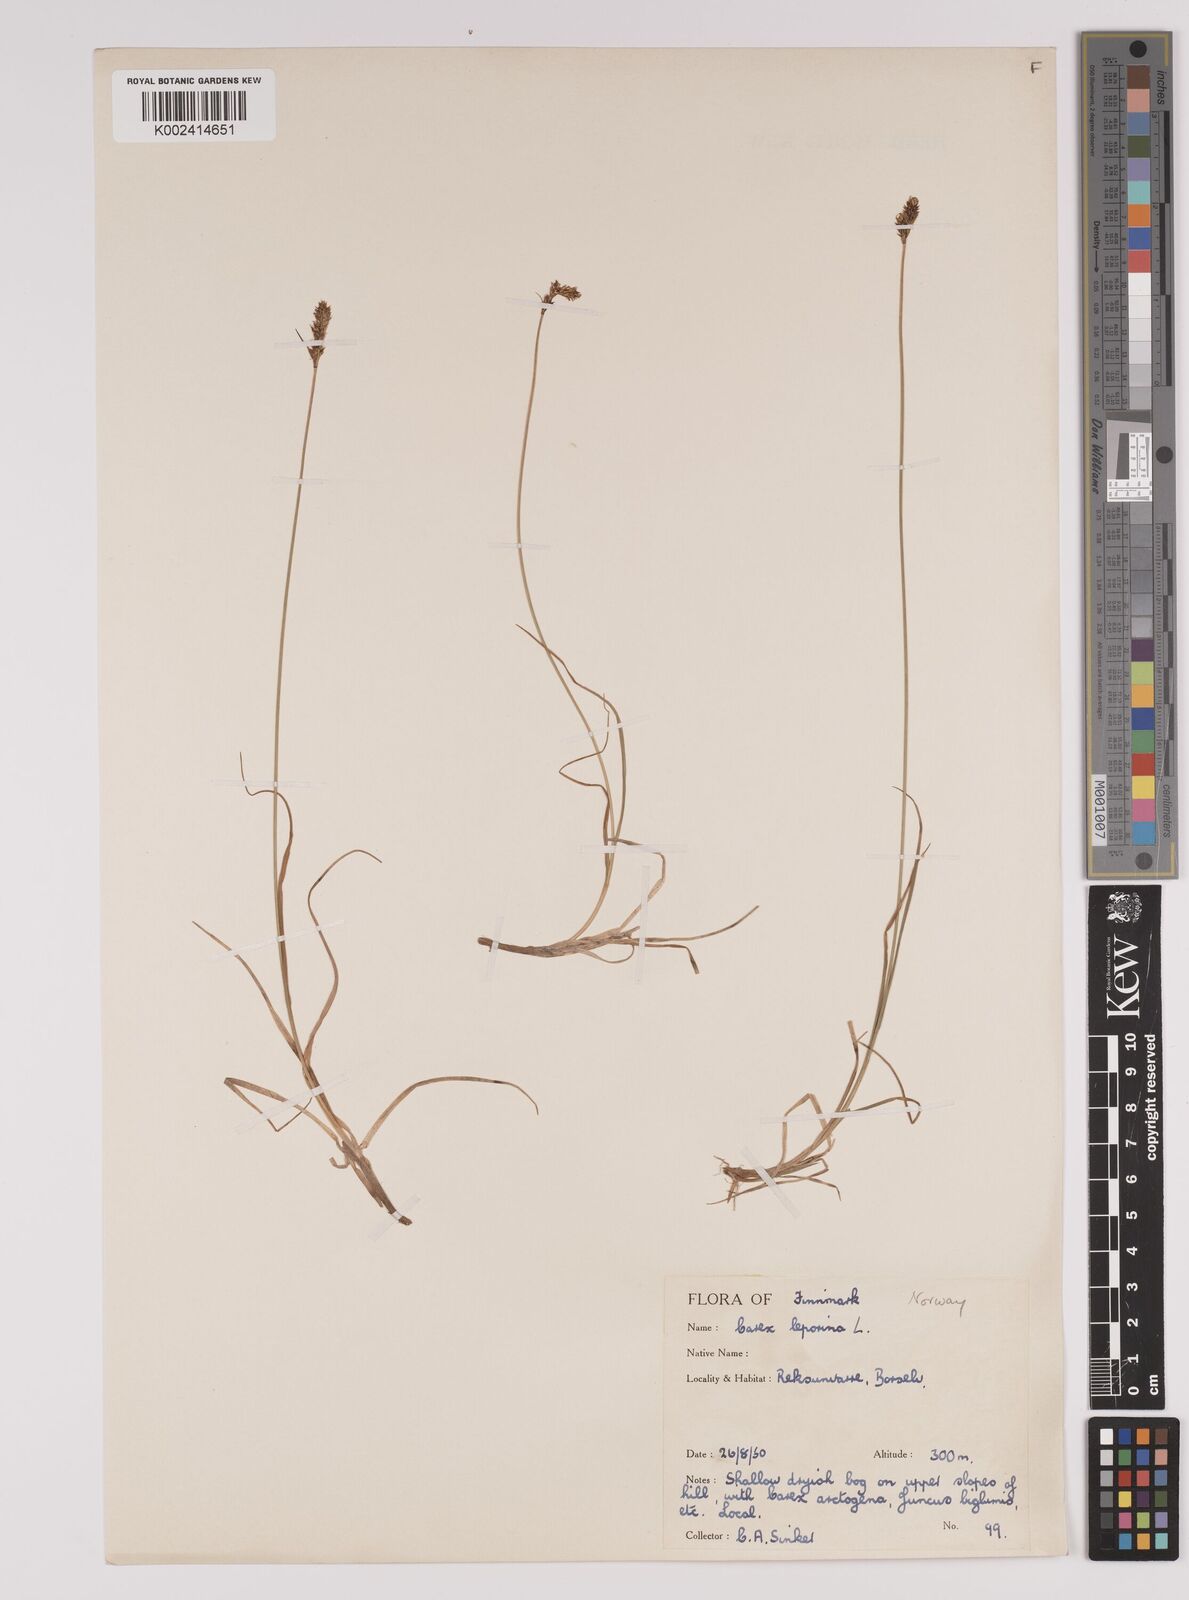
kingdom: Plantae
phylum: Tracheophyta
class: Liliopsida
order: Poales
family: Cyperaceae
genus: Carex
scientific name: Carex parallela
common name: Parallel sedge
